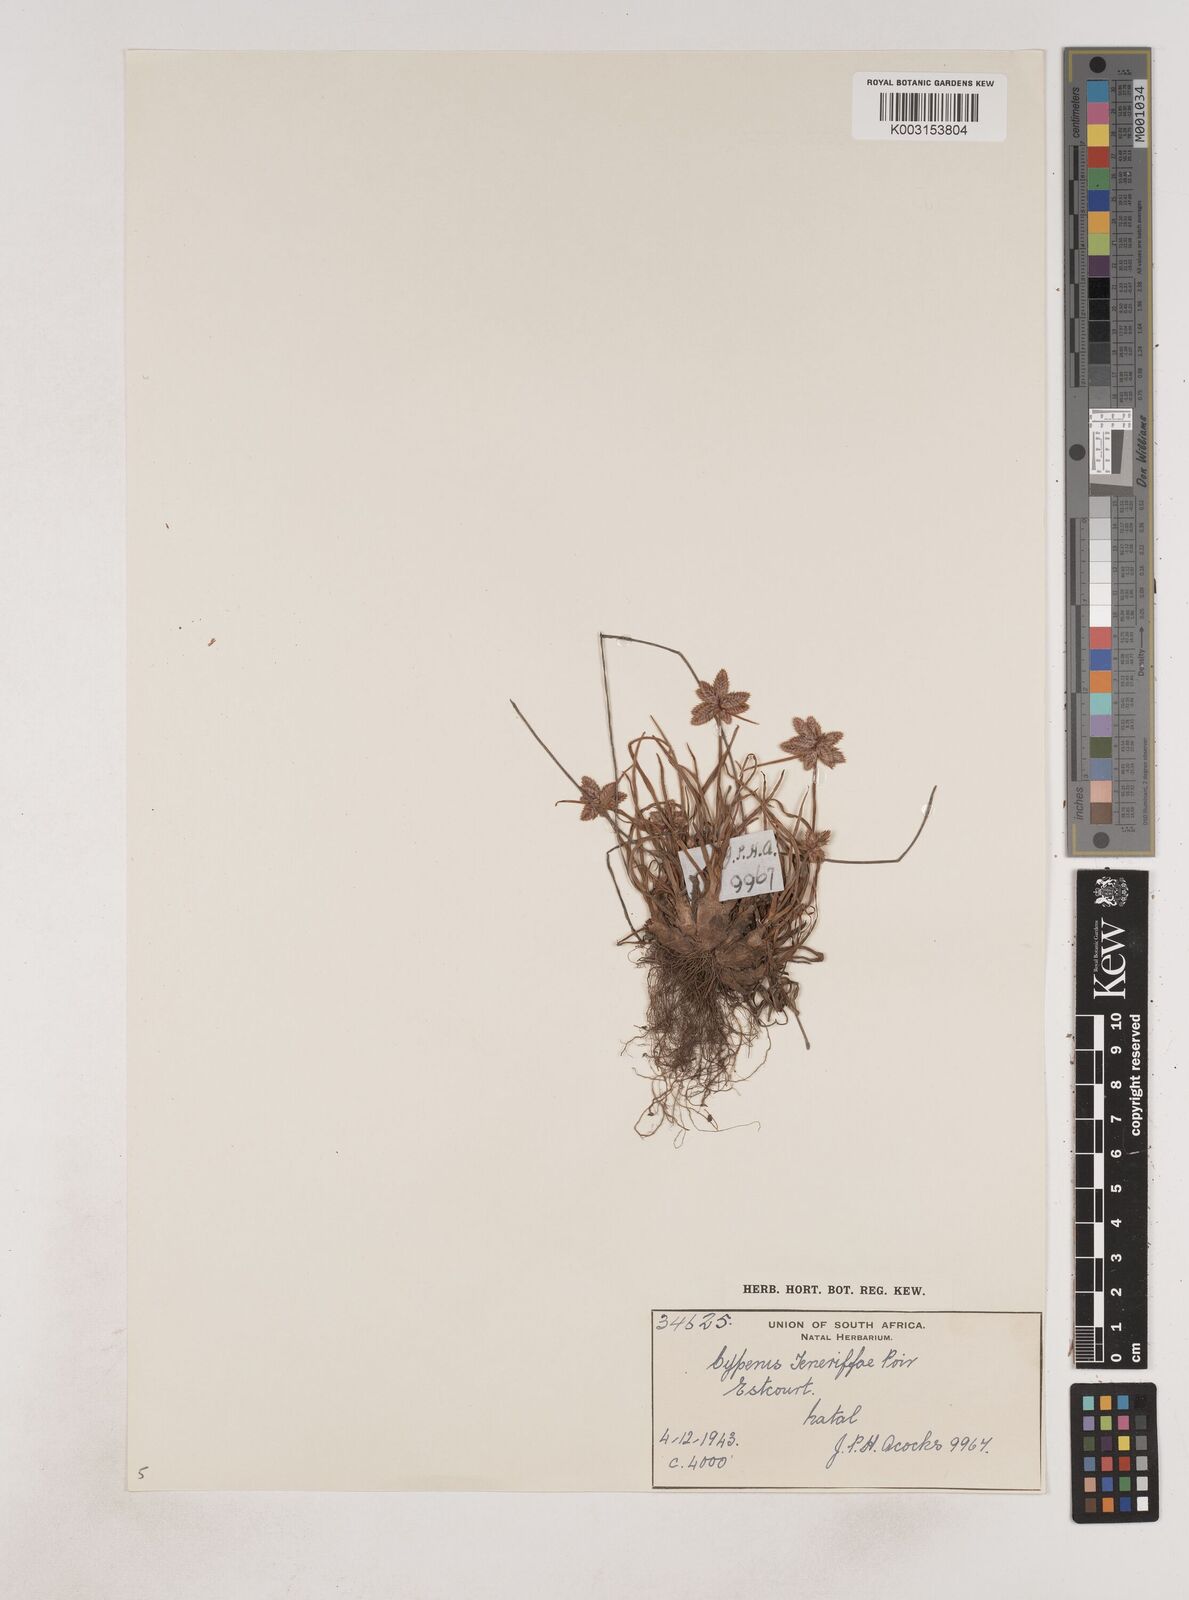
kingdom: Plantae
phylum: Tracheophyta
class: Liliopsida
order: Poales
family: Cyperaceae
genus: Cyperus
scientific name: Cyperus rubicundus
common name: Coco-grass
